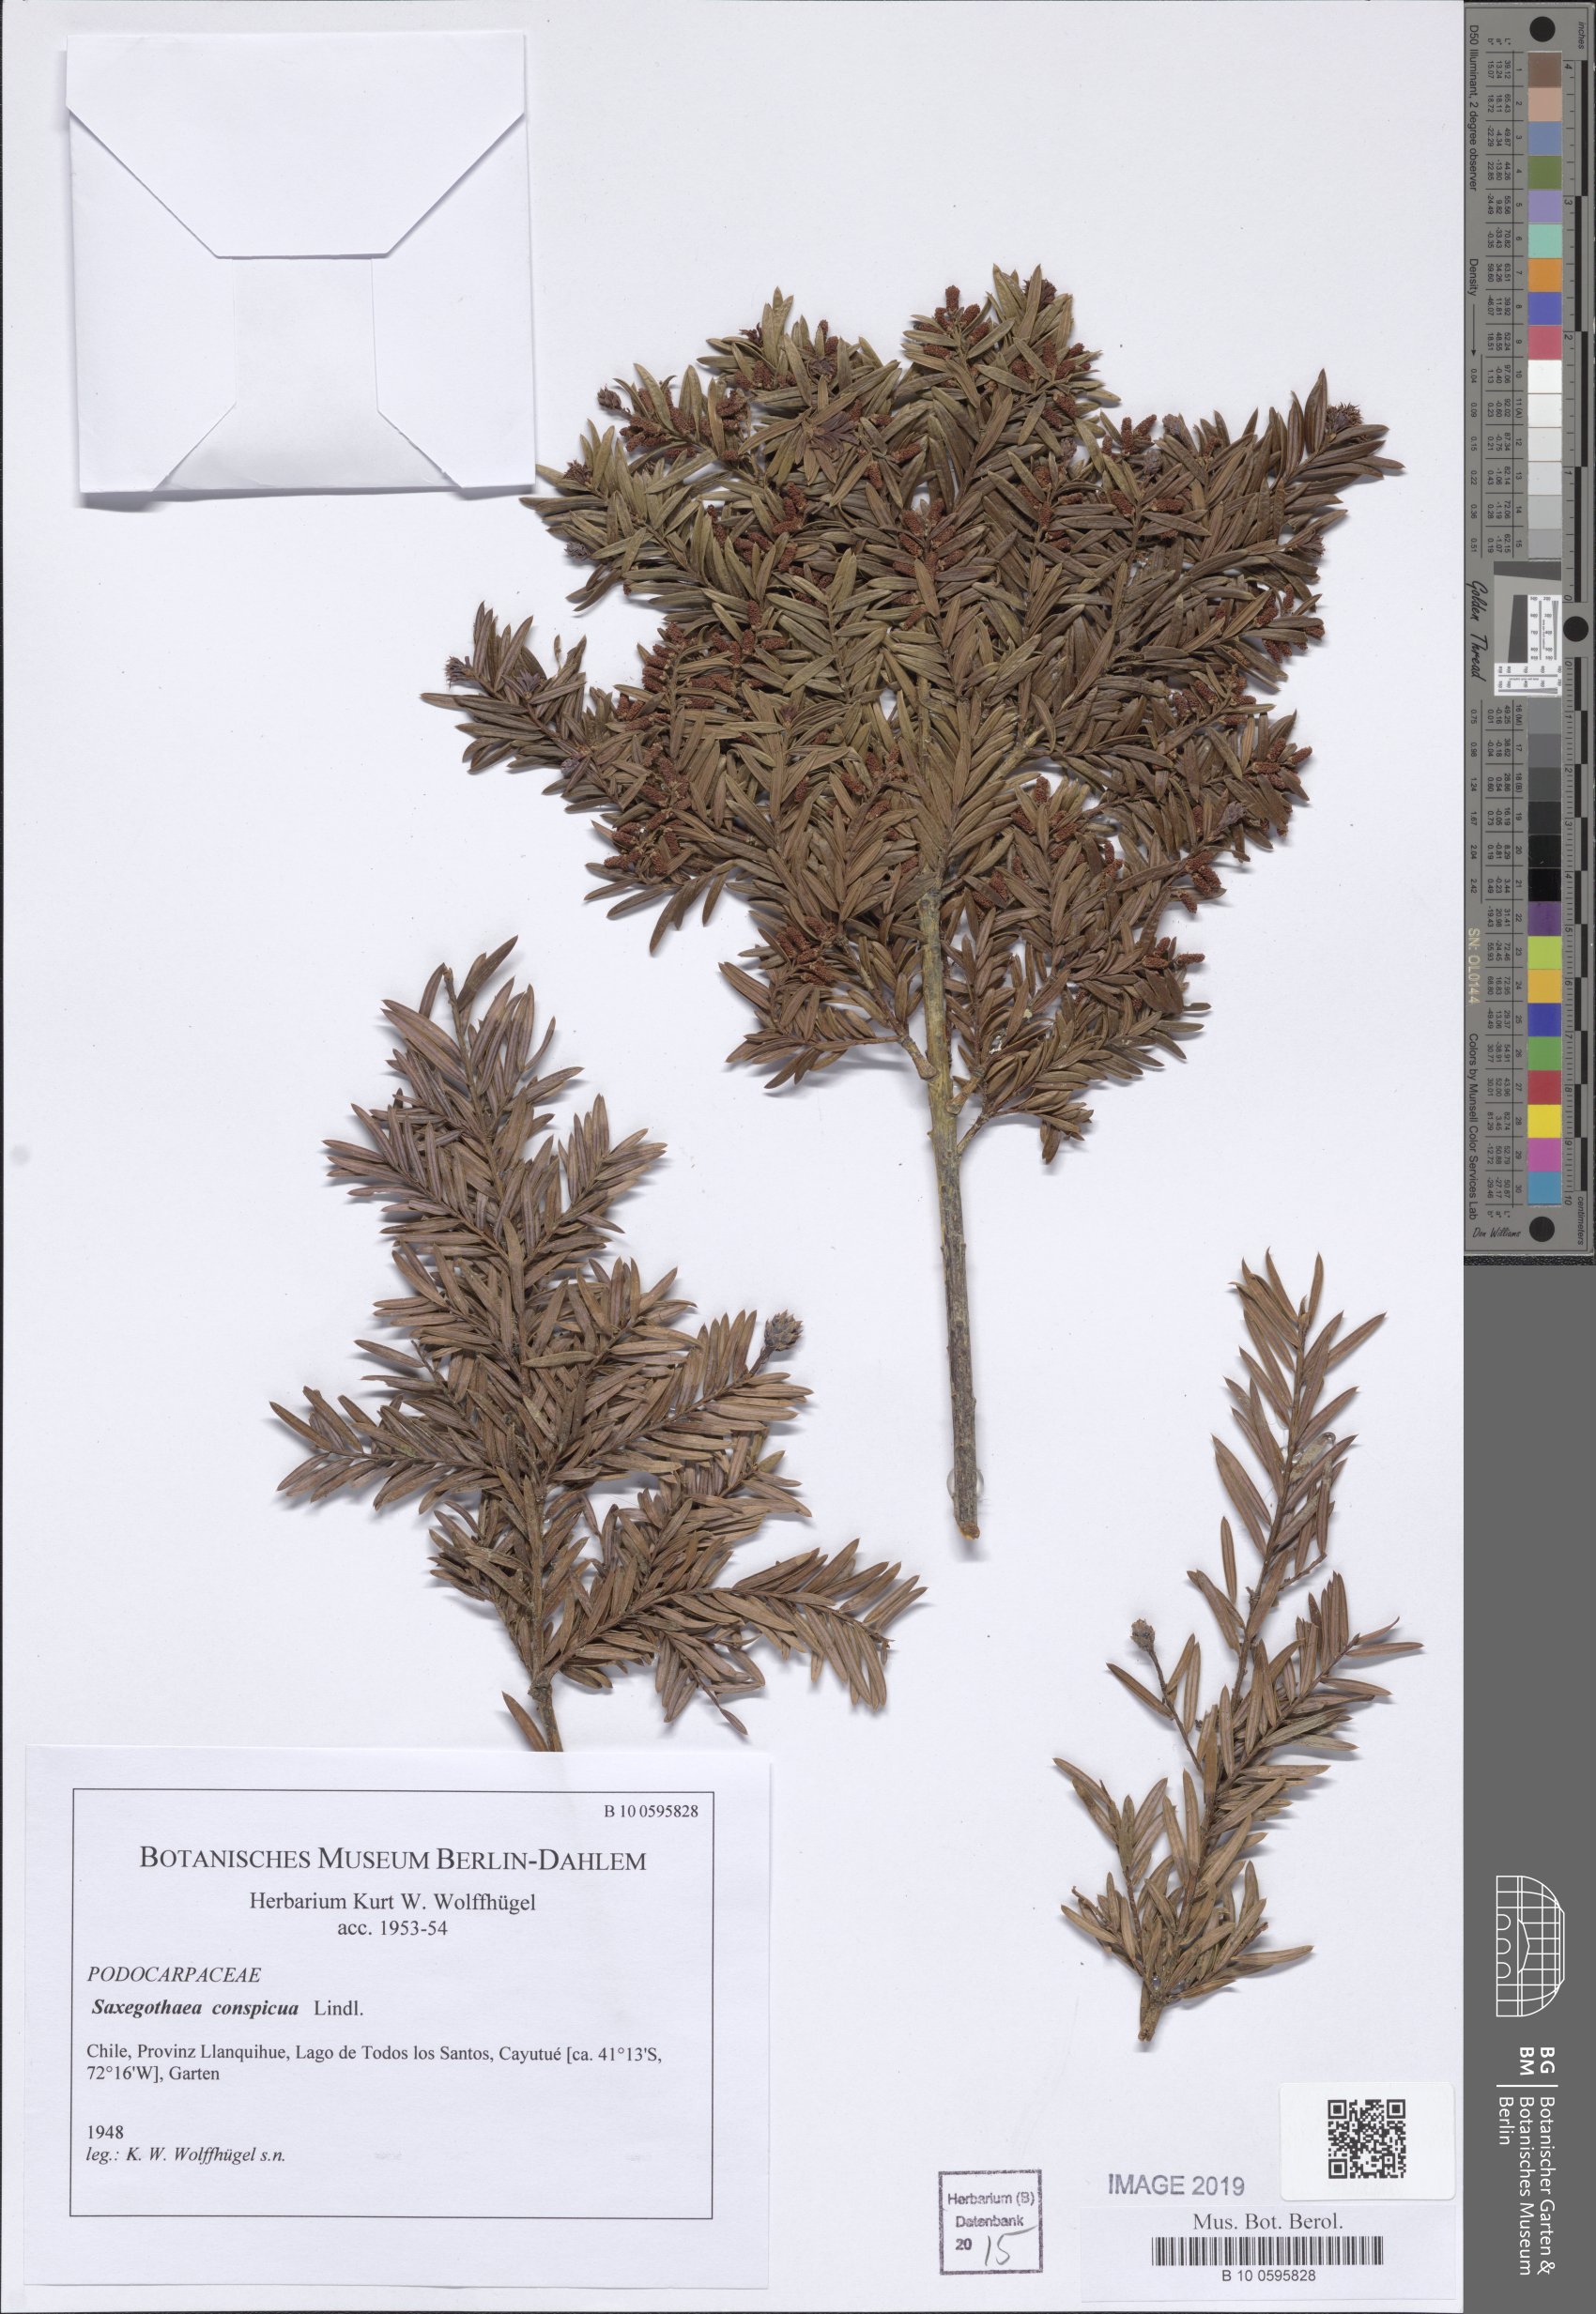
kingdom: Plantae
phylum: Tracheophyta
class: Pinopsida
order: Pinales
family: Podocarpaceae
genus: Saxegothaea
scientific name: Saxegothaea conspicua
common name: Prince albert's yew
